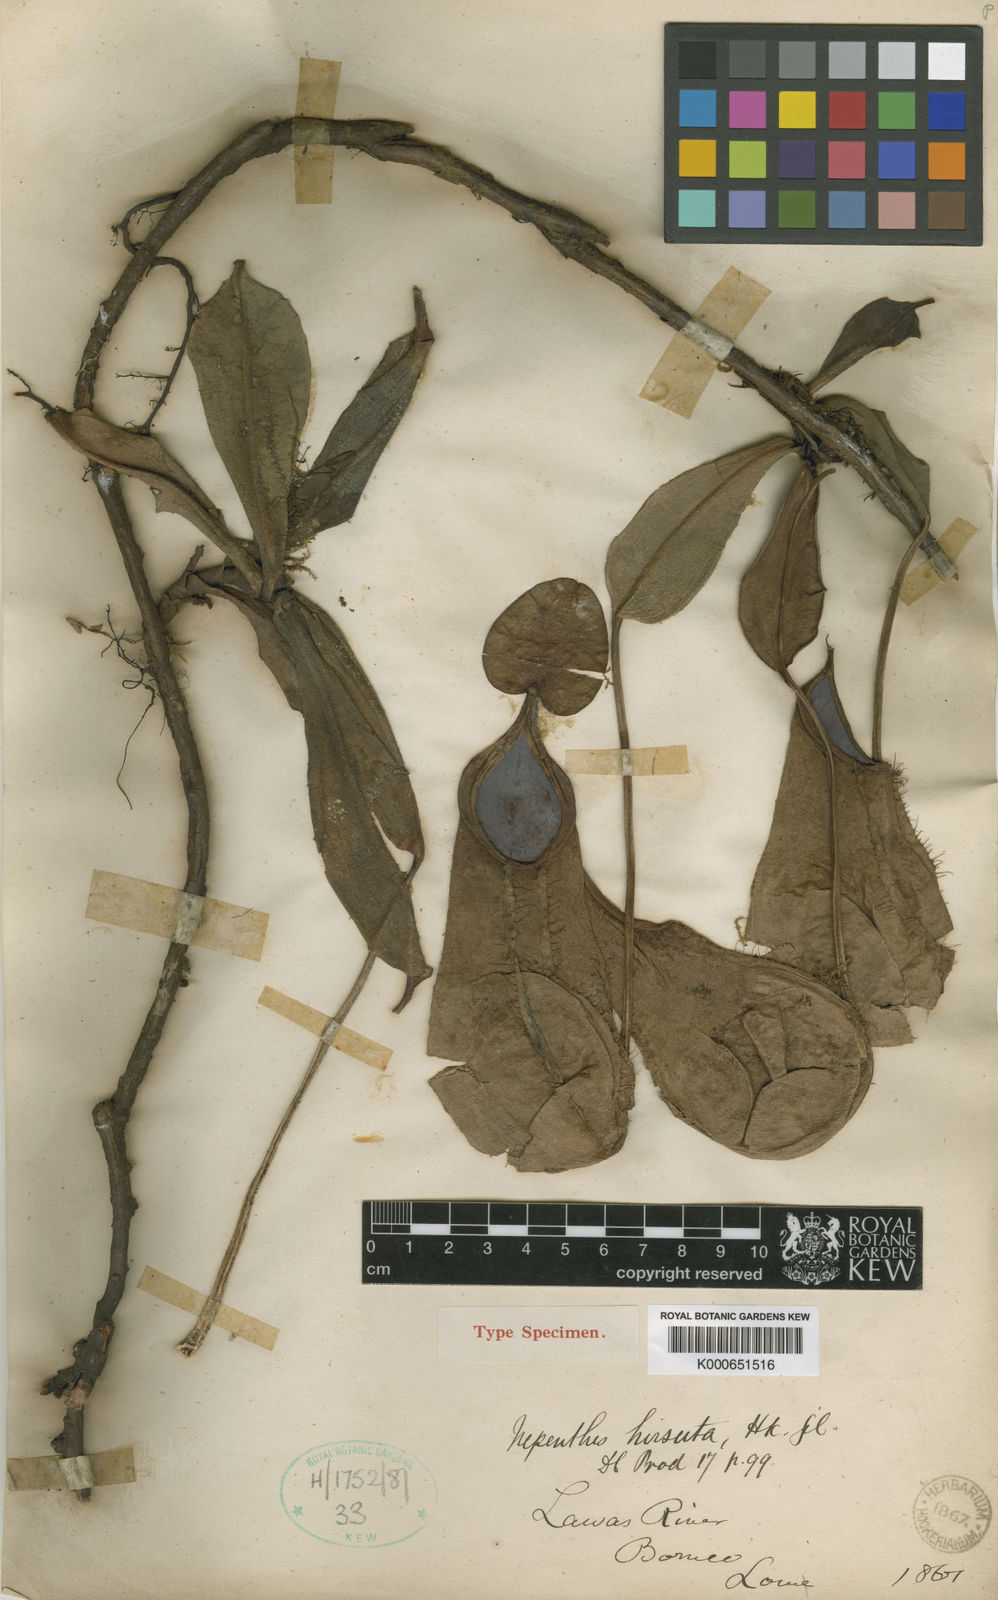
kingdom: Plantae
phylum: Tracheophyta
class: Magnoliopsida
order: Caryophyllales
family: Nepenthaceae
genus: Nepenthes
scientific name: Nepenthes hirsuta
